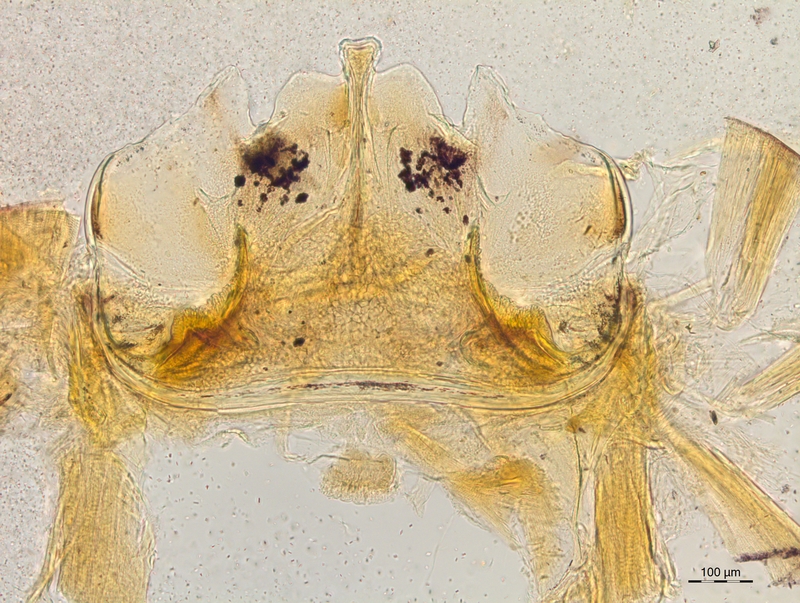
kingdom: Animalia
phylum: Arthropoda
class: Diplopoda
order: Chordeumatida
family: Craspedosomatidae
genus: Craspedosoma
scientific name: Craspedosoma taurinorum
